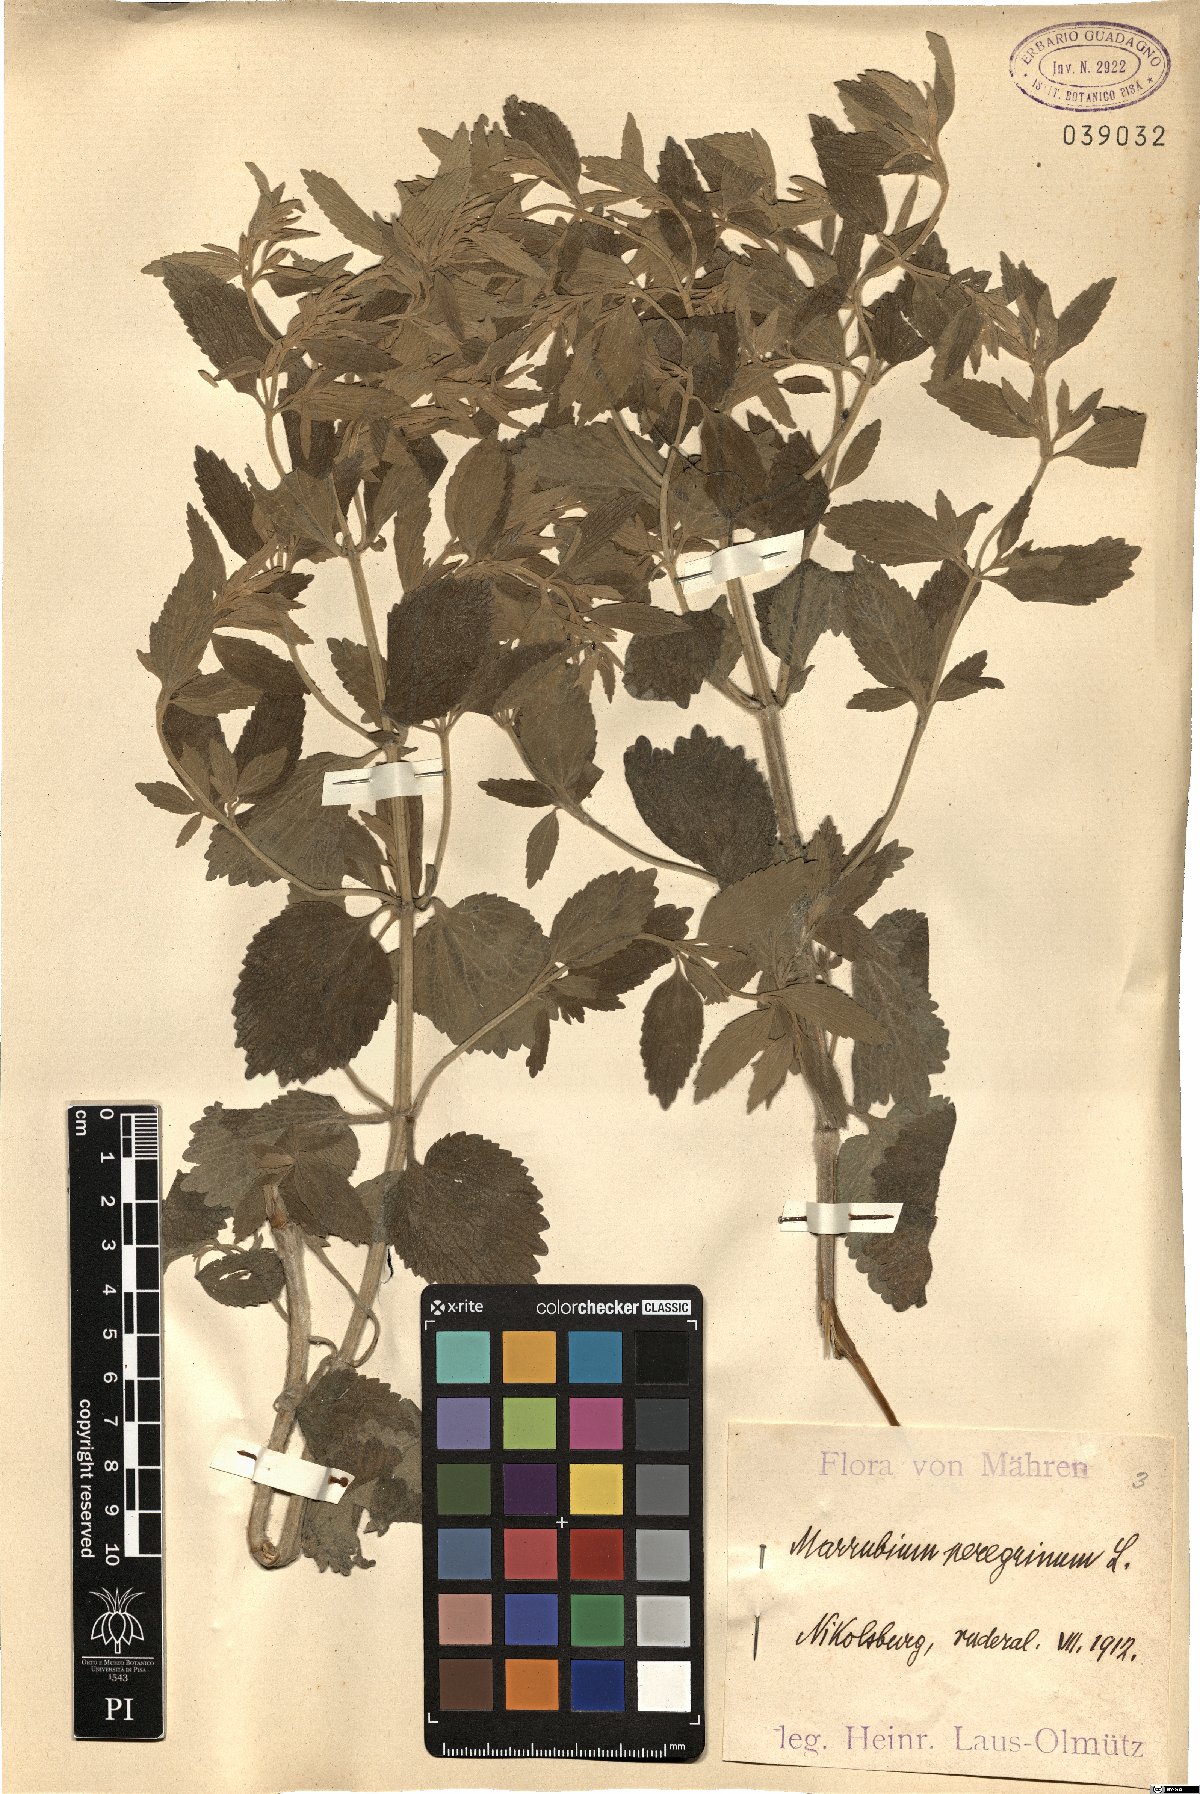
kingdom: Plantae
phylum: Tracheophyta
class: Magnoliopsida
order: Lamiales
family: Lamiaceae
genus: Marrubium
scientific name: Marrubium peregrinum
